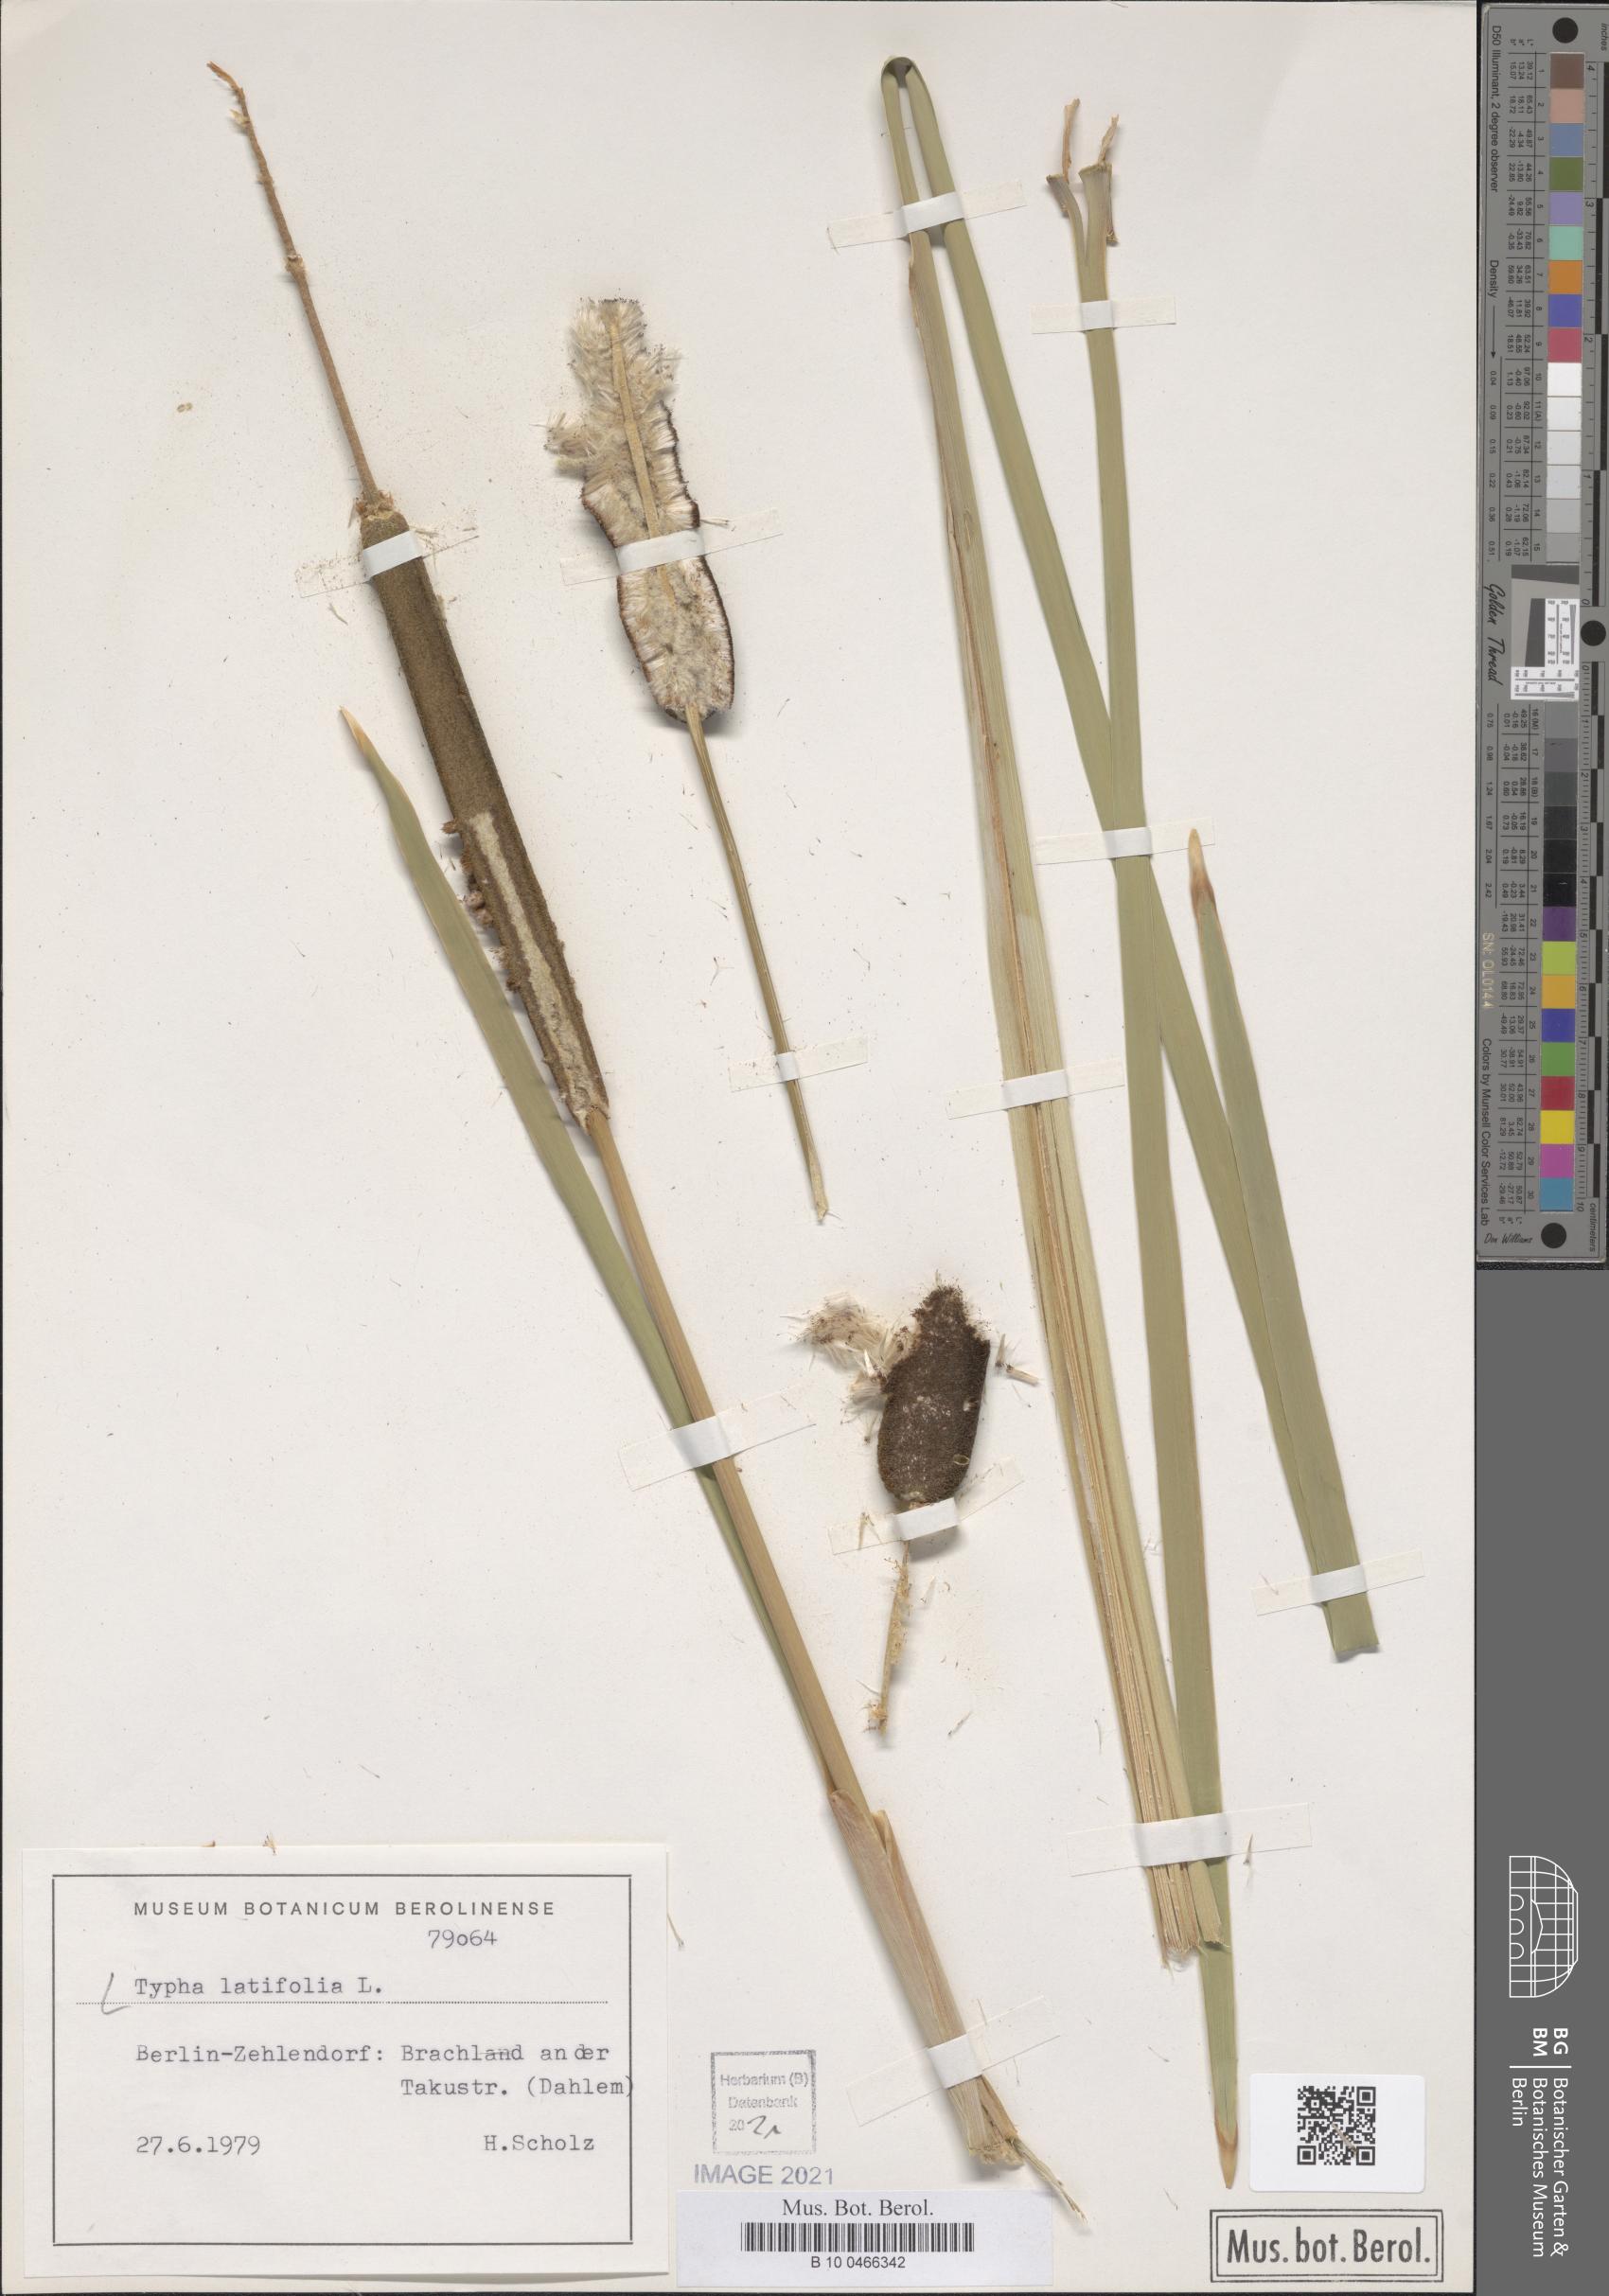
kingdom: Plantae
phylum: Tracheophyta
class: Liliopsida
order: Poales
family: Typhaceae
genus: Typha
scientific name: Typha latifolia
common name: Broadleaf cattail
